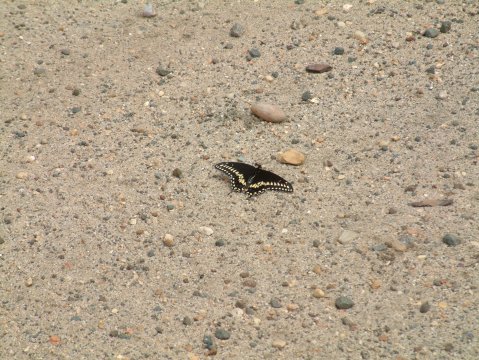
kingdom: Animalia
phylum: Arthropoda
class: Insecta
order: Lepidoptera
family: Papilionidae
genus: Papilio
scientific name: Papilio polyxenes
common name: Black Swallowtail
